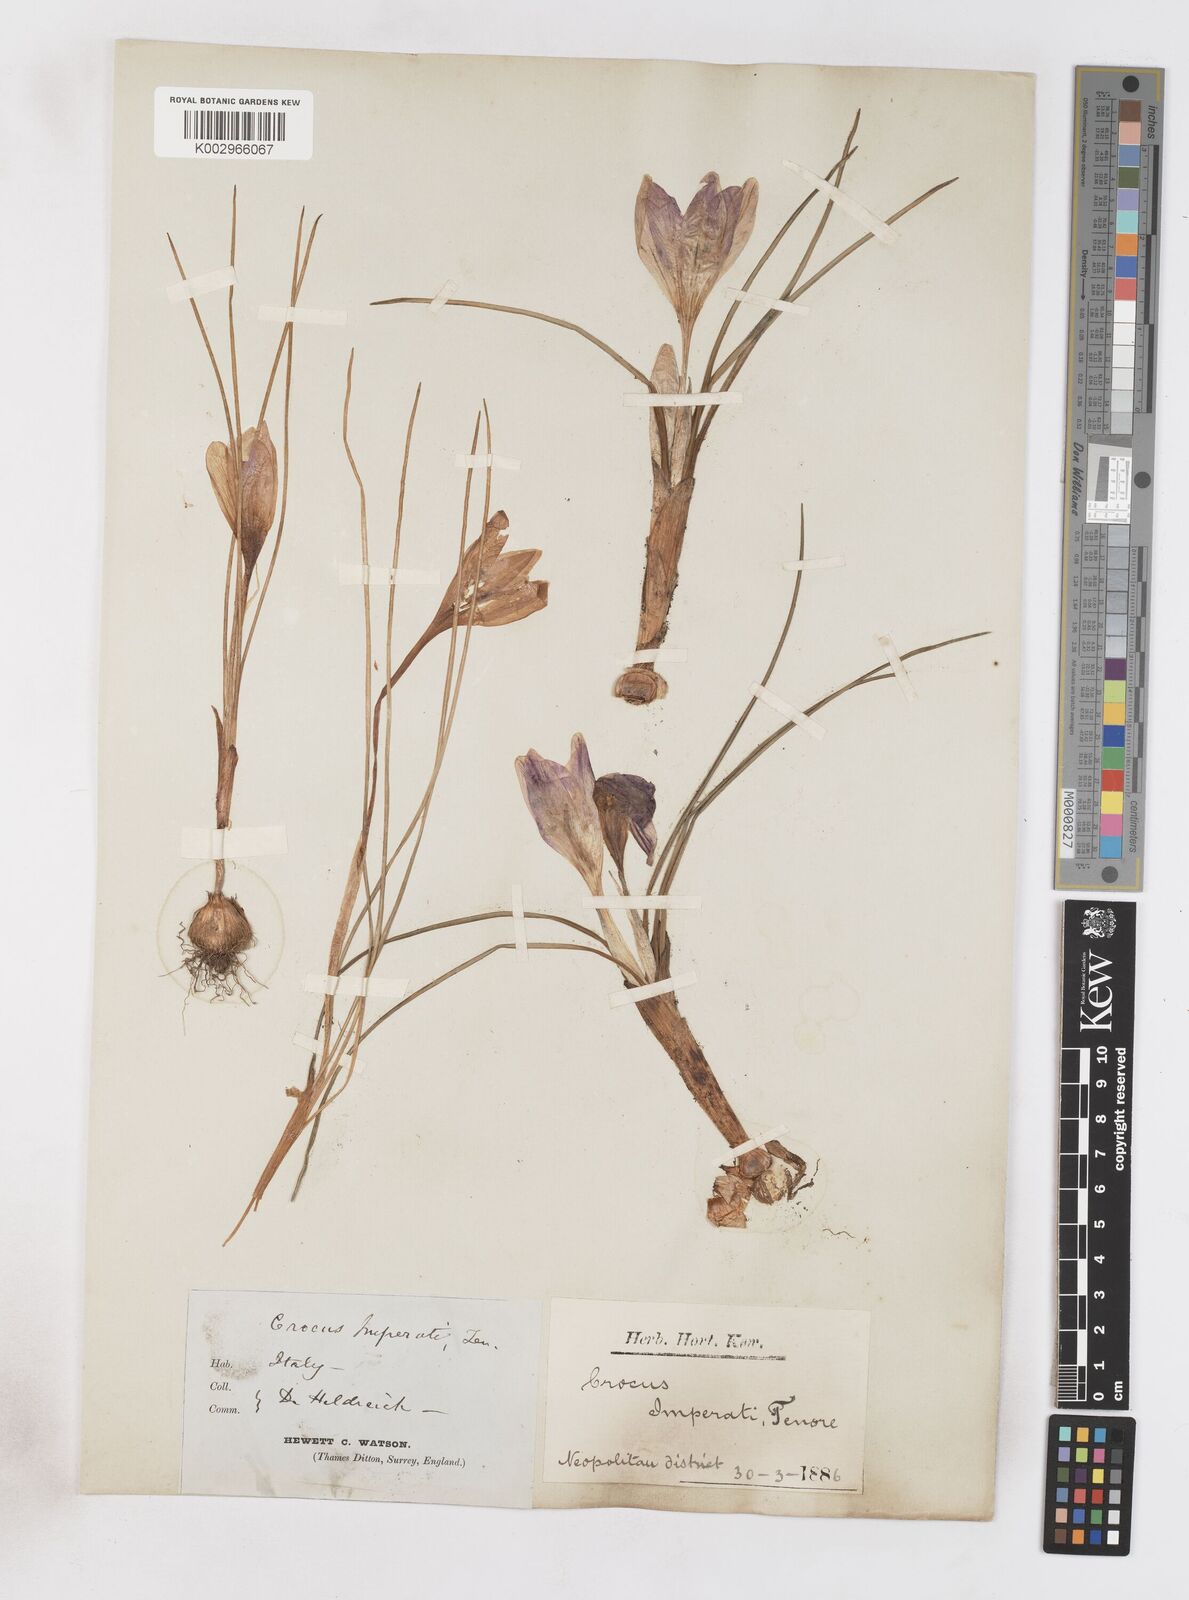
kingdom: Plantae
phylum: Tracheophyta
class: Liliopsida
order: Asparagales
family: Iridaceae
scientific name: Iridaceae
